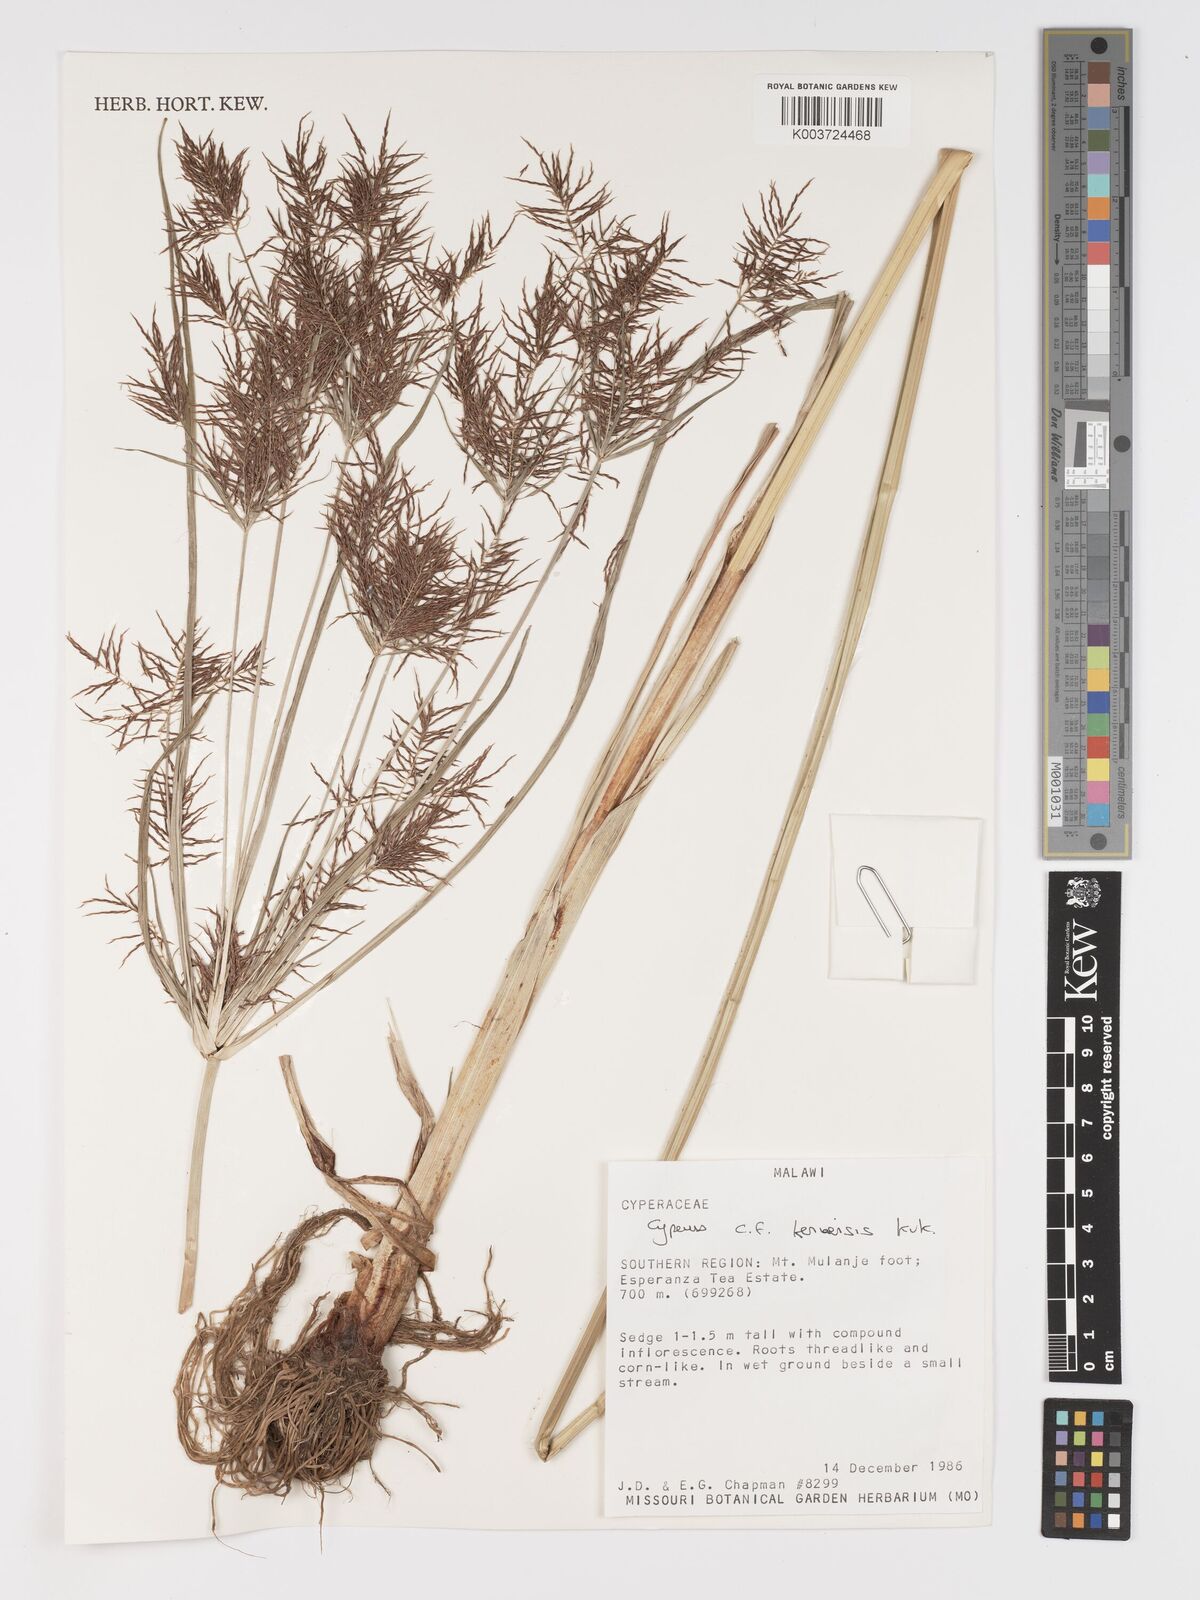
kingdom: Plantae
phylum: Tracheophyta
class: Liliopsida
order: Poales
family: Cyperaceae
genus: Cyperus
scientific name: Cyperus
